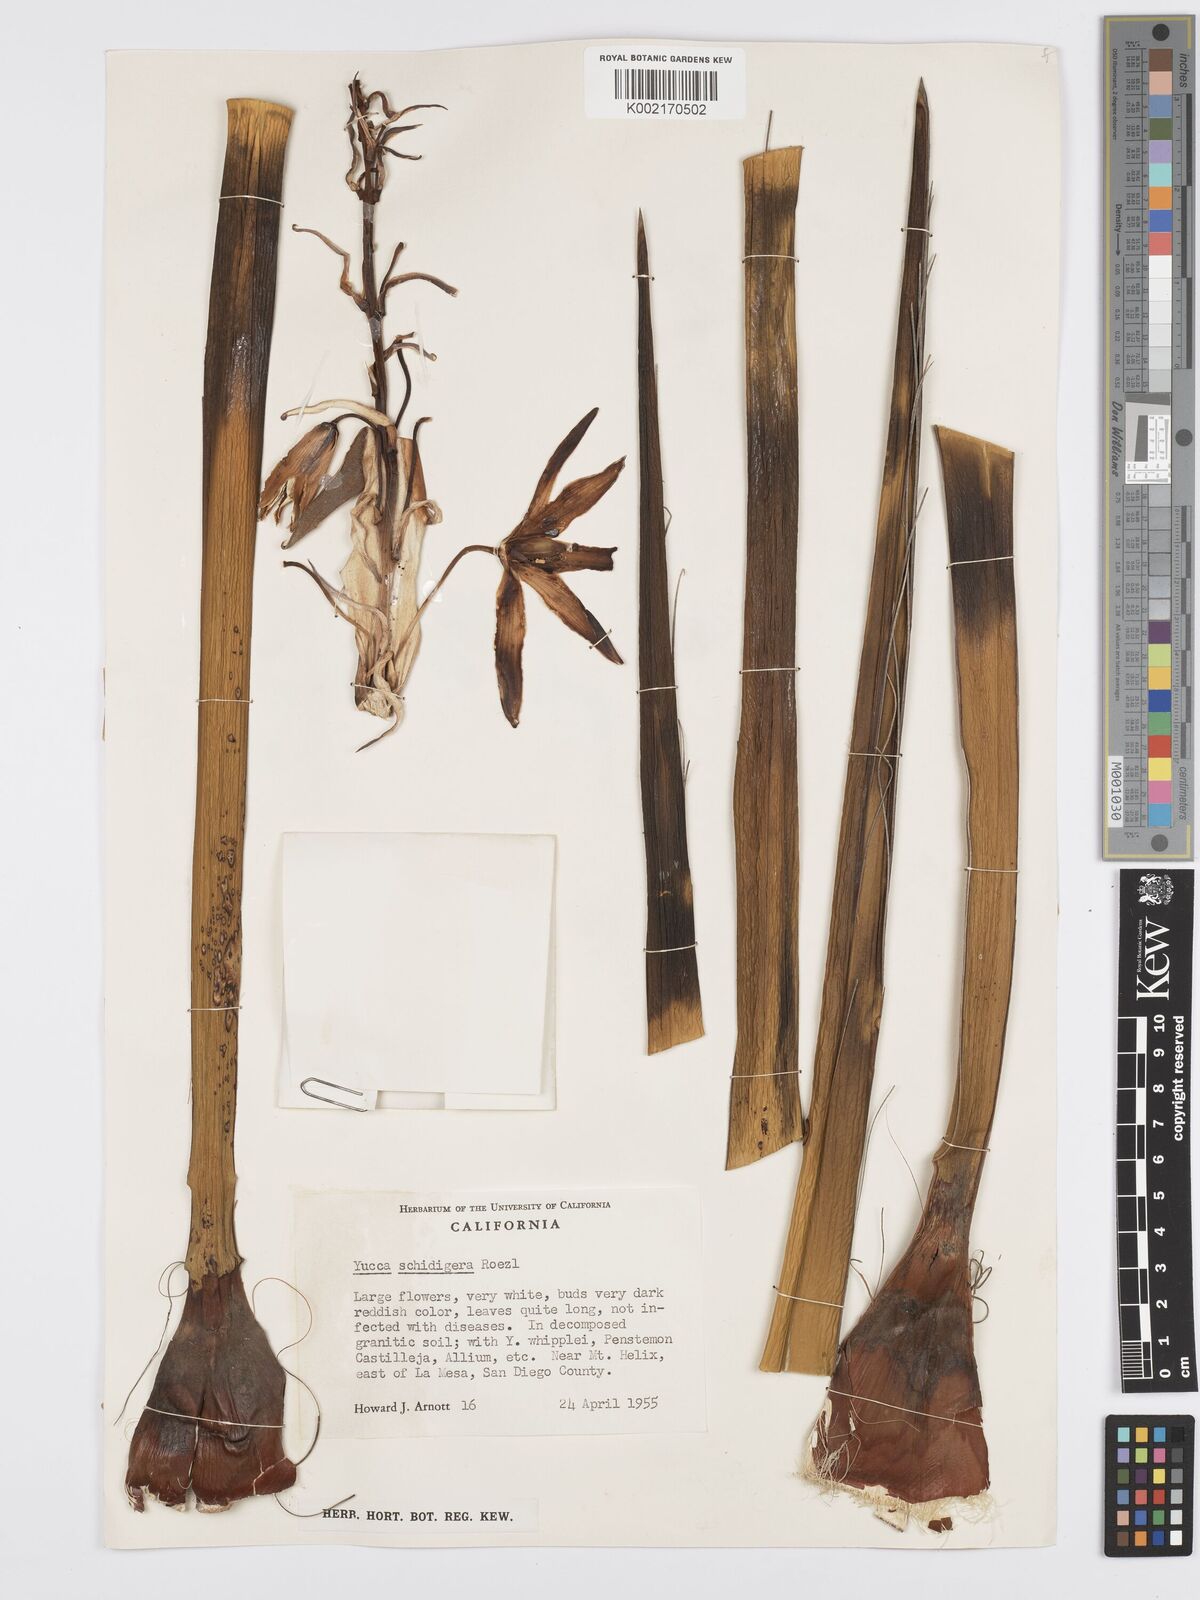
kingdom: Plantae
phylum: Tracheophyta
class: Liliopsida
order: Asparagales
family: Asparagaceae
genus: Yucca
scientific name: Yucca schidigera
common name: Mojave yucca
